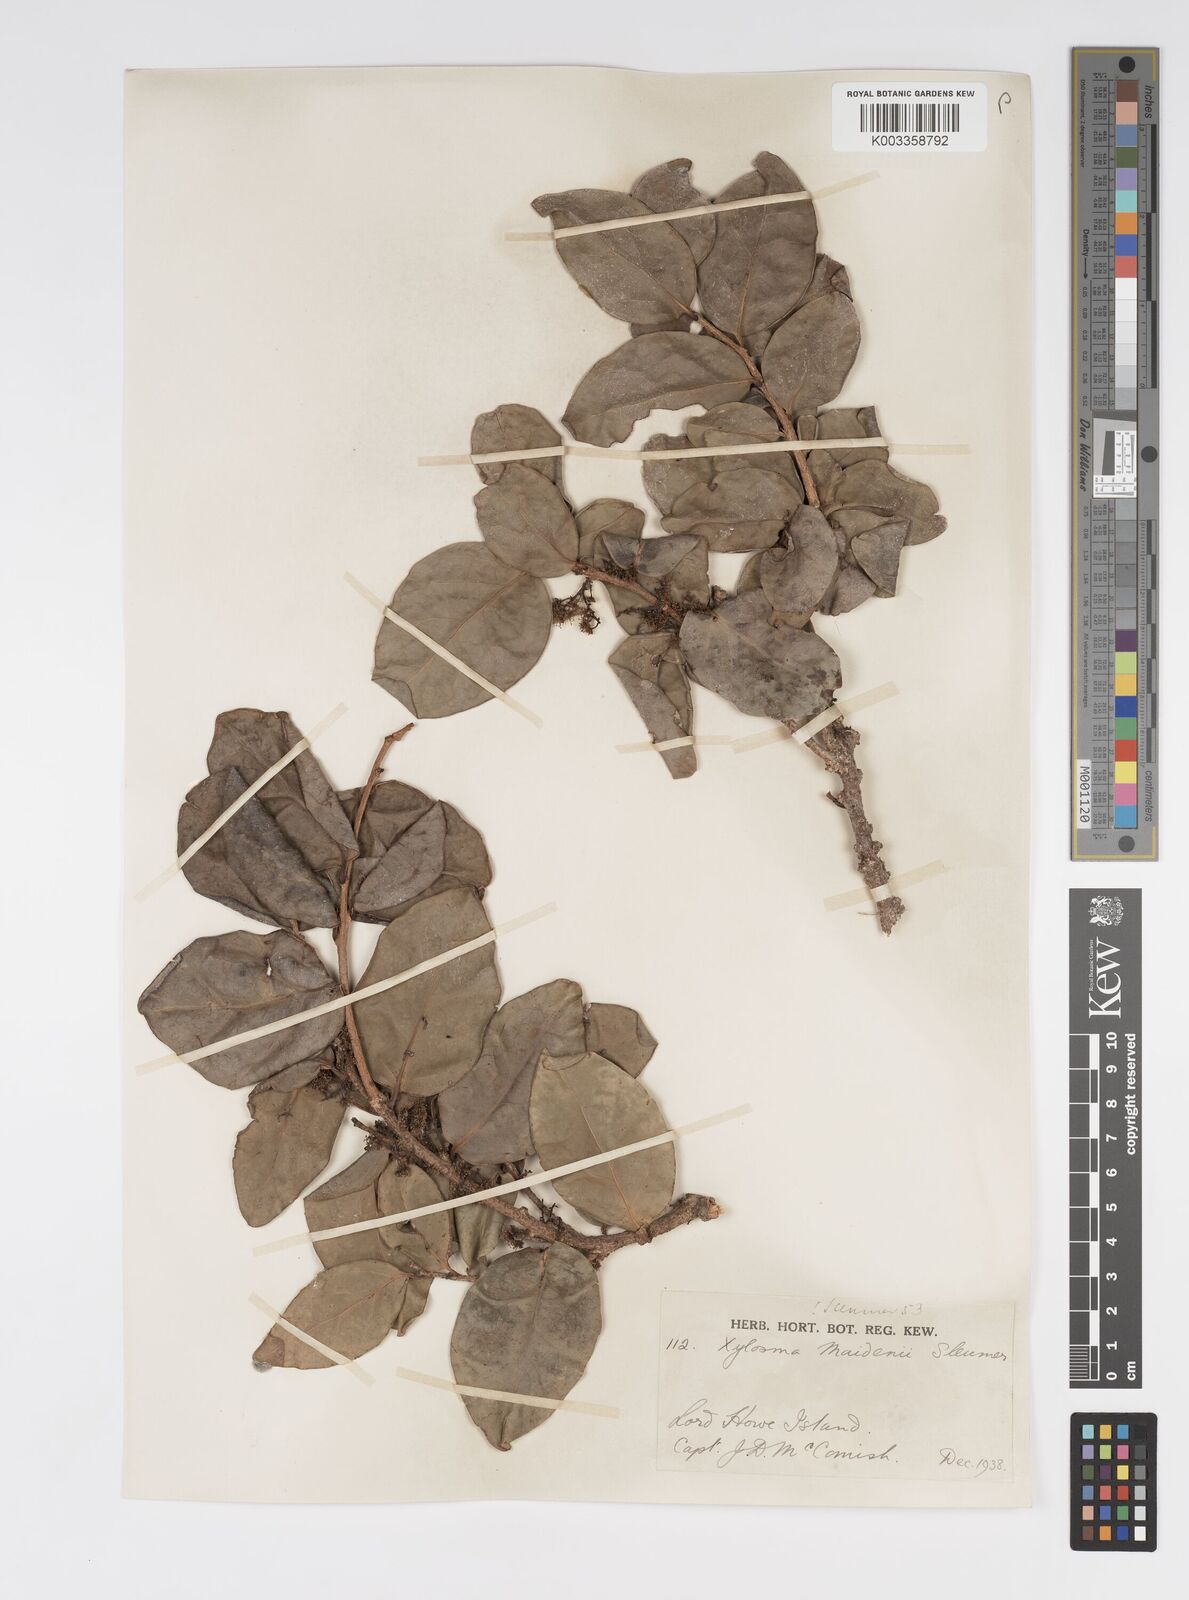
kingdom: Plantae
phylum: Tracheophyta
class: Magnoliopsida
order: Malpighiales
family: Salicaceae
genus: Xylosma
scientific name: Xylosma maidenii
